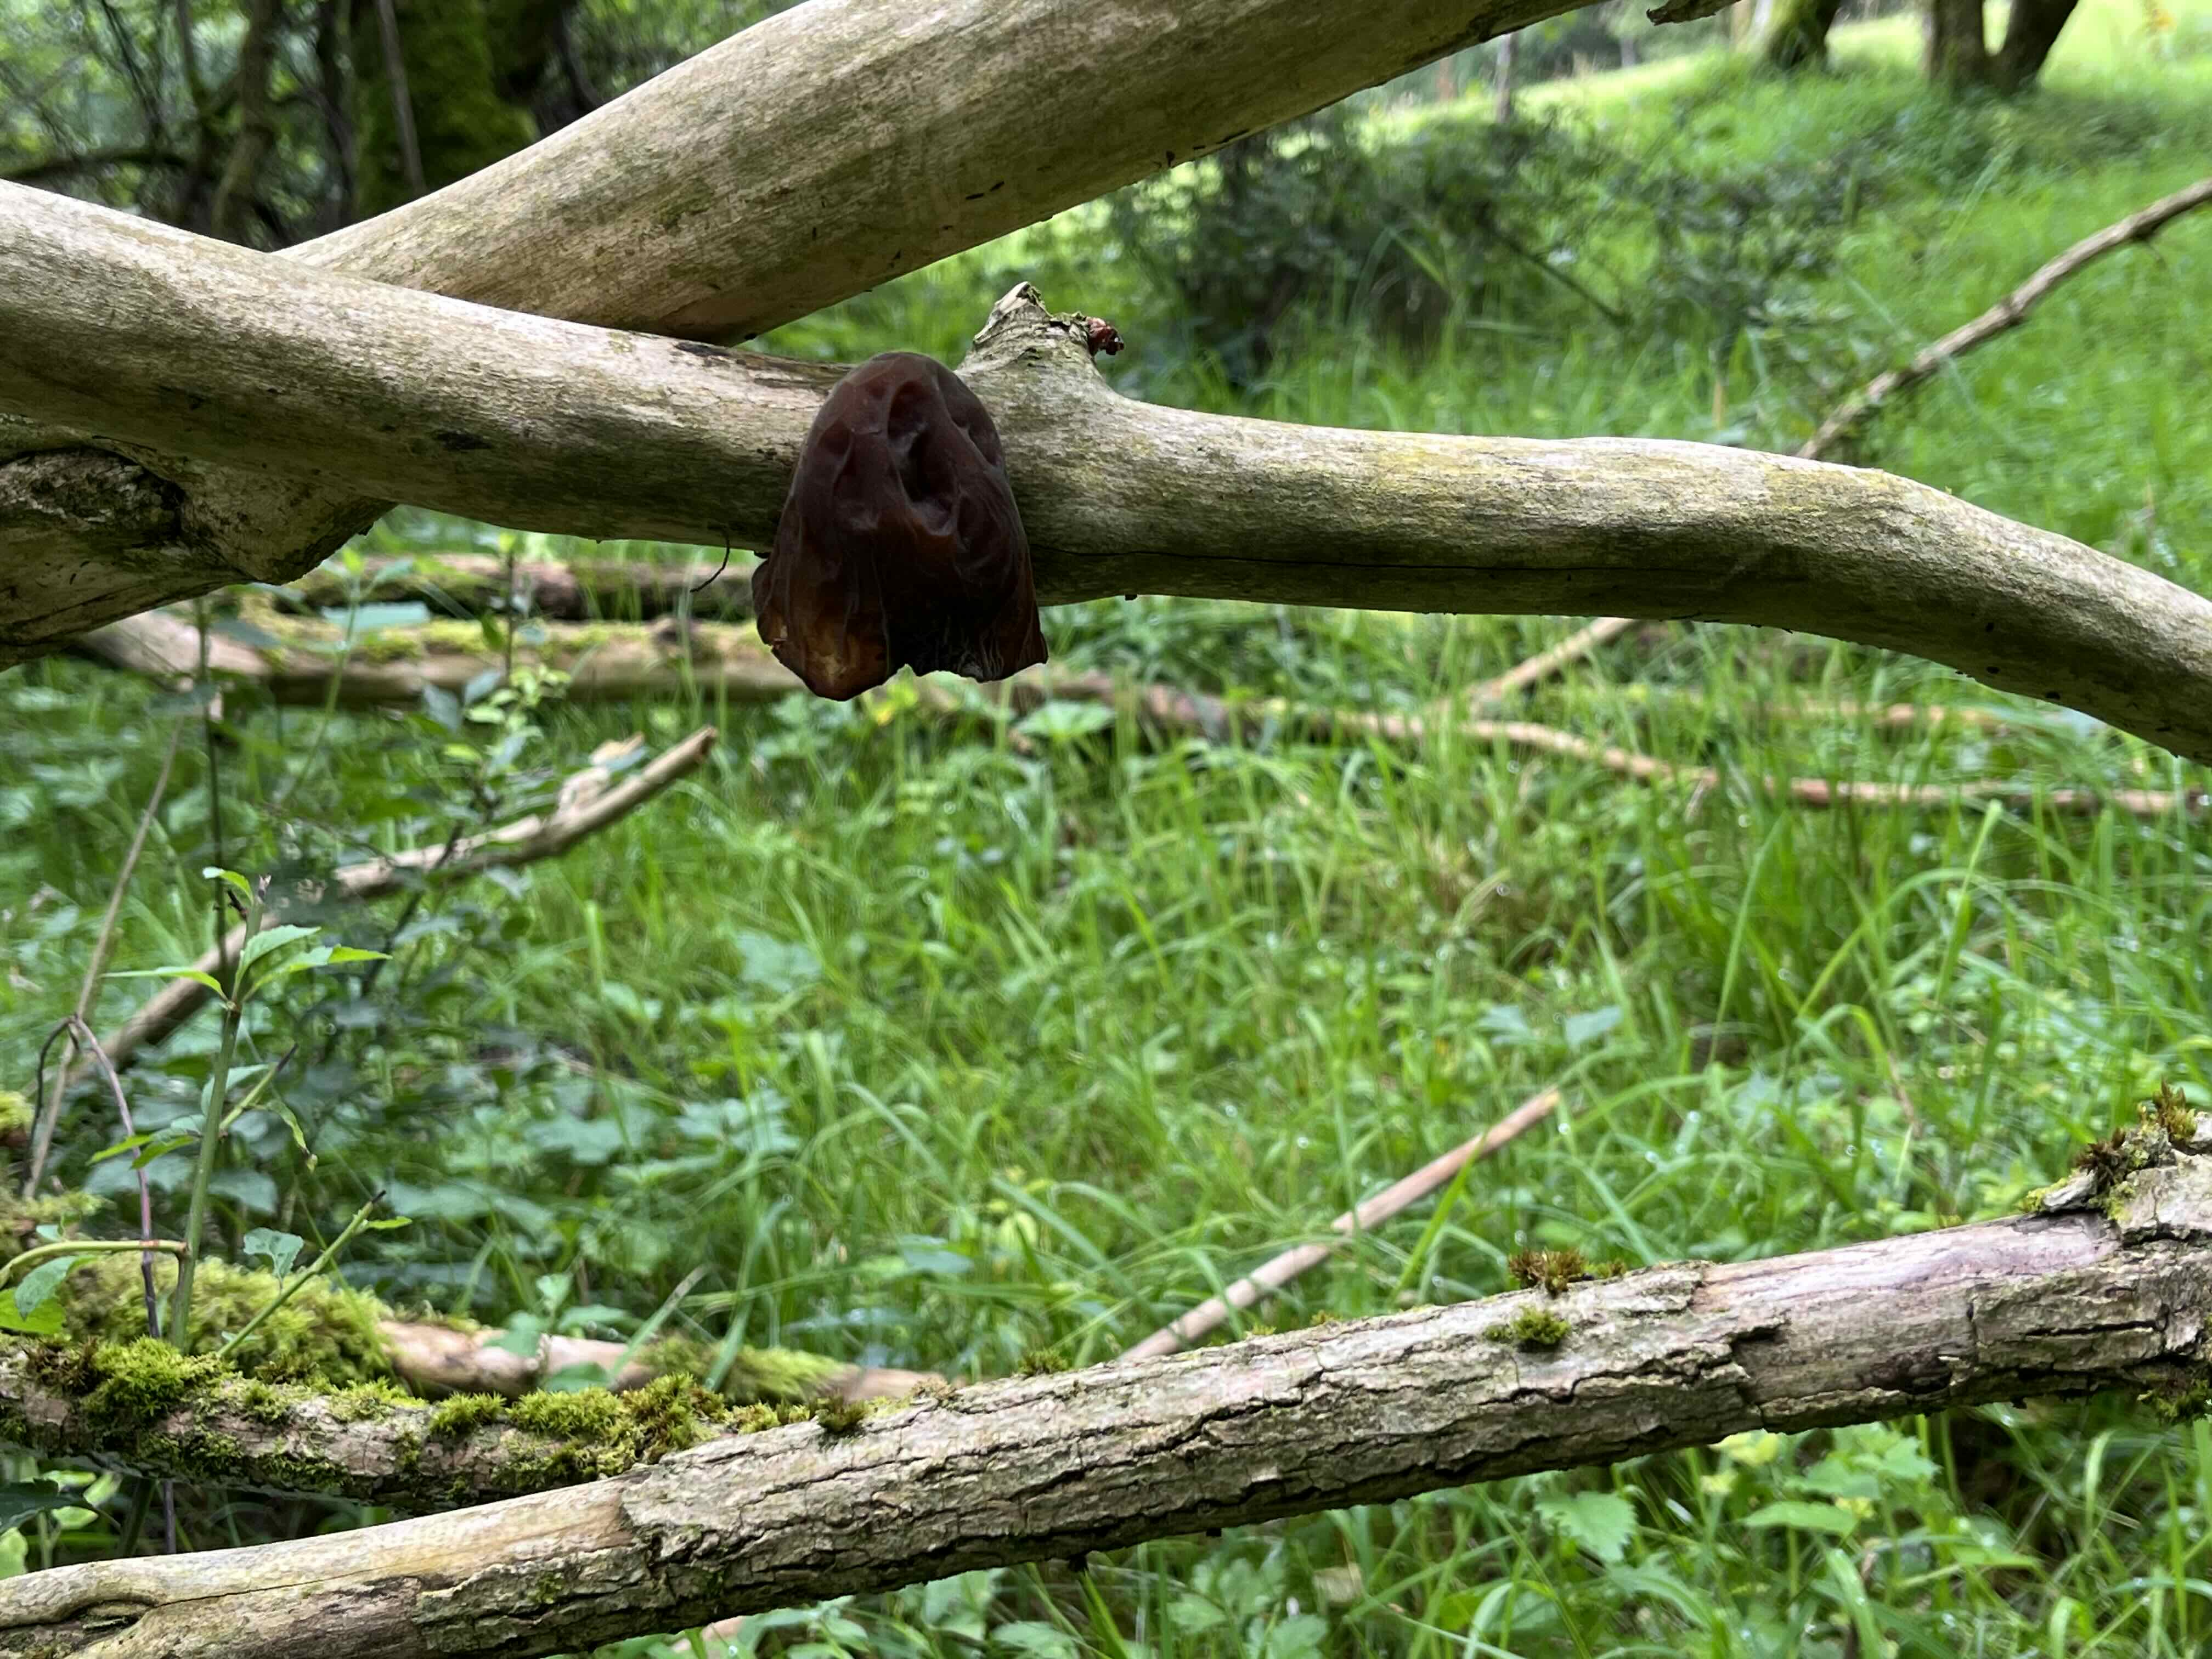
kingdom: Fungi
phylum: Basidiomycota
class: Agaricomycetes
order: Auriculariales
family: Auriculariaceae
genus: Auricularia
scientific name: Auricularia auricula-judae
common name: almindelig judasøre
